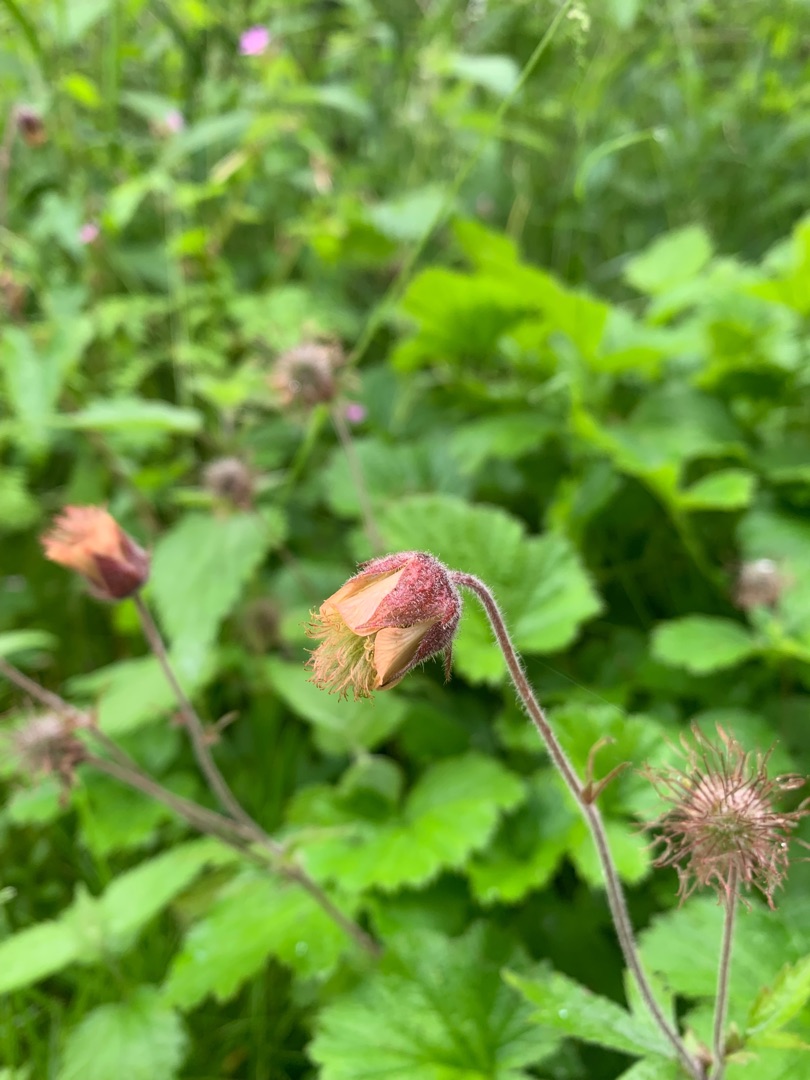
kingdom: Plantae
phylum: Tracheophyta
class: Magnoliopsida
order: Rosales
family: Rosaceae
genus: Geum
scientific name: Geum rivale
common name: Eng-nellikerod
